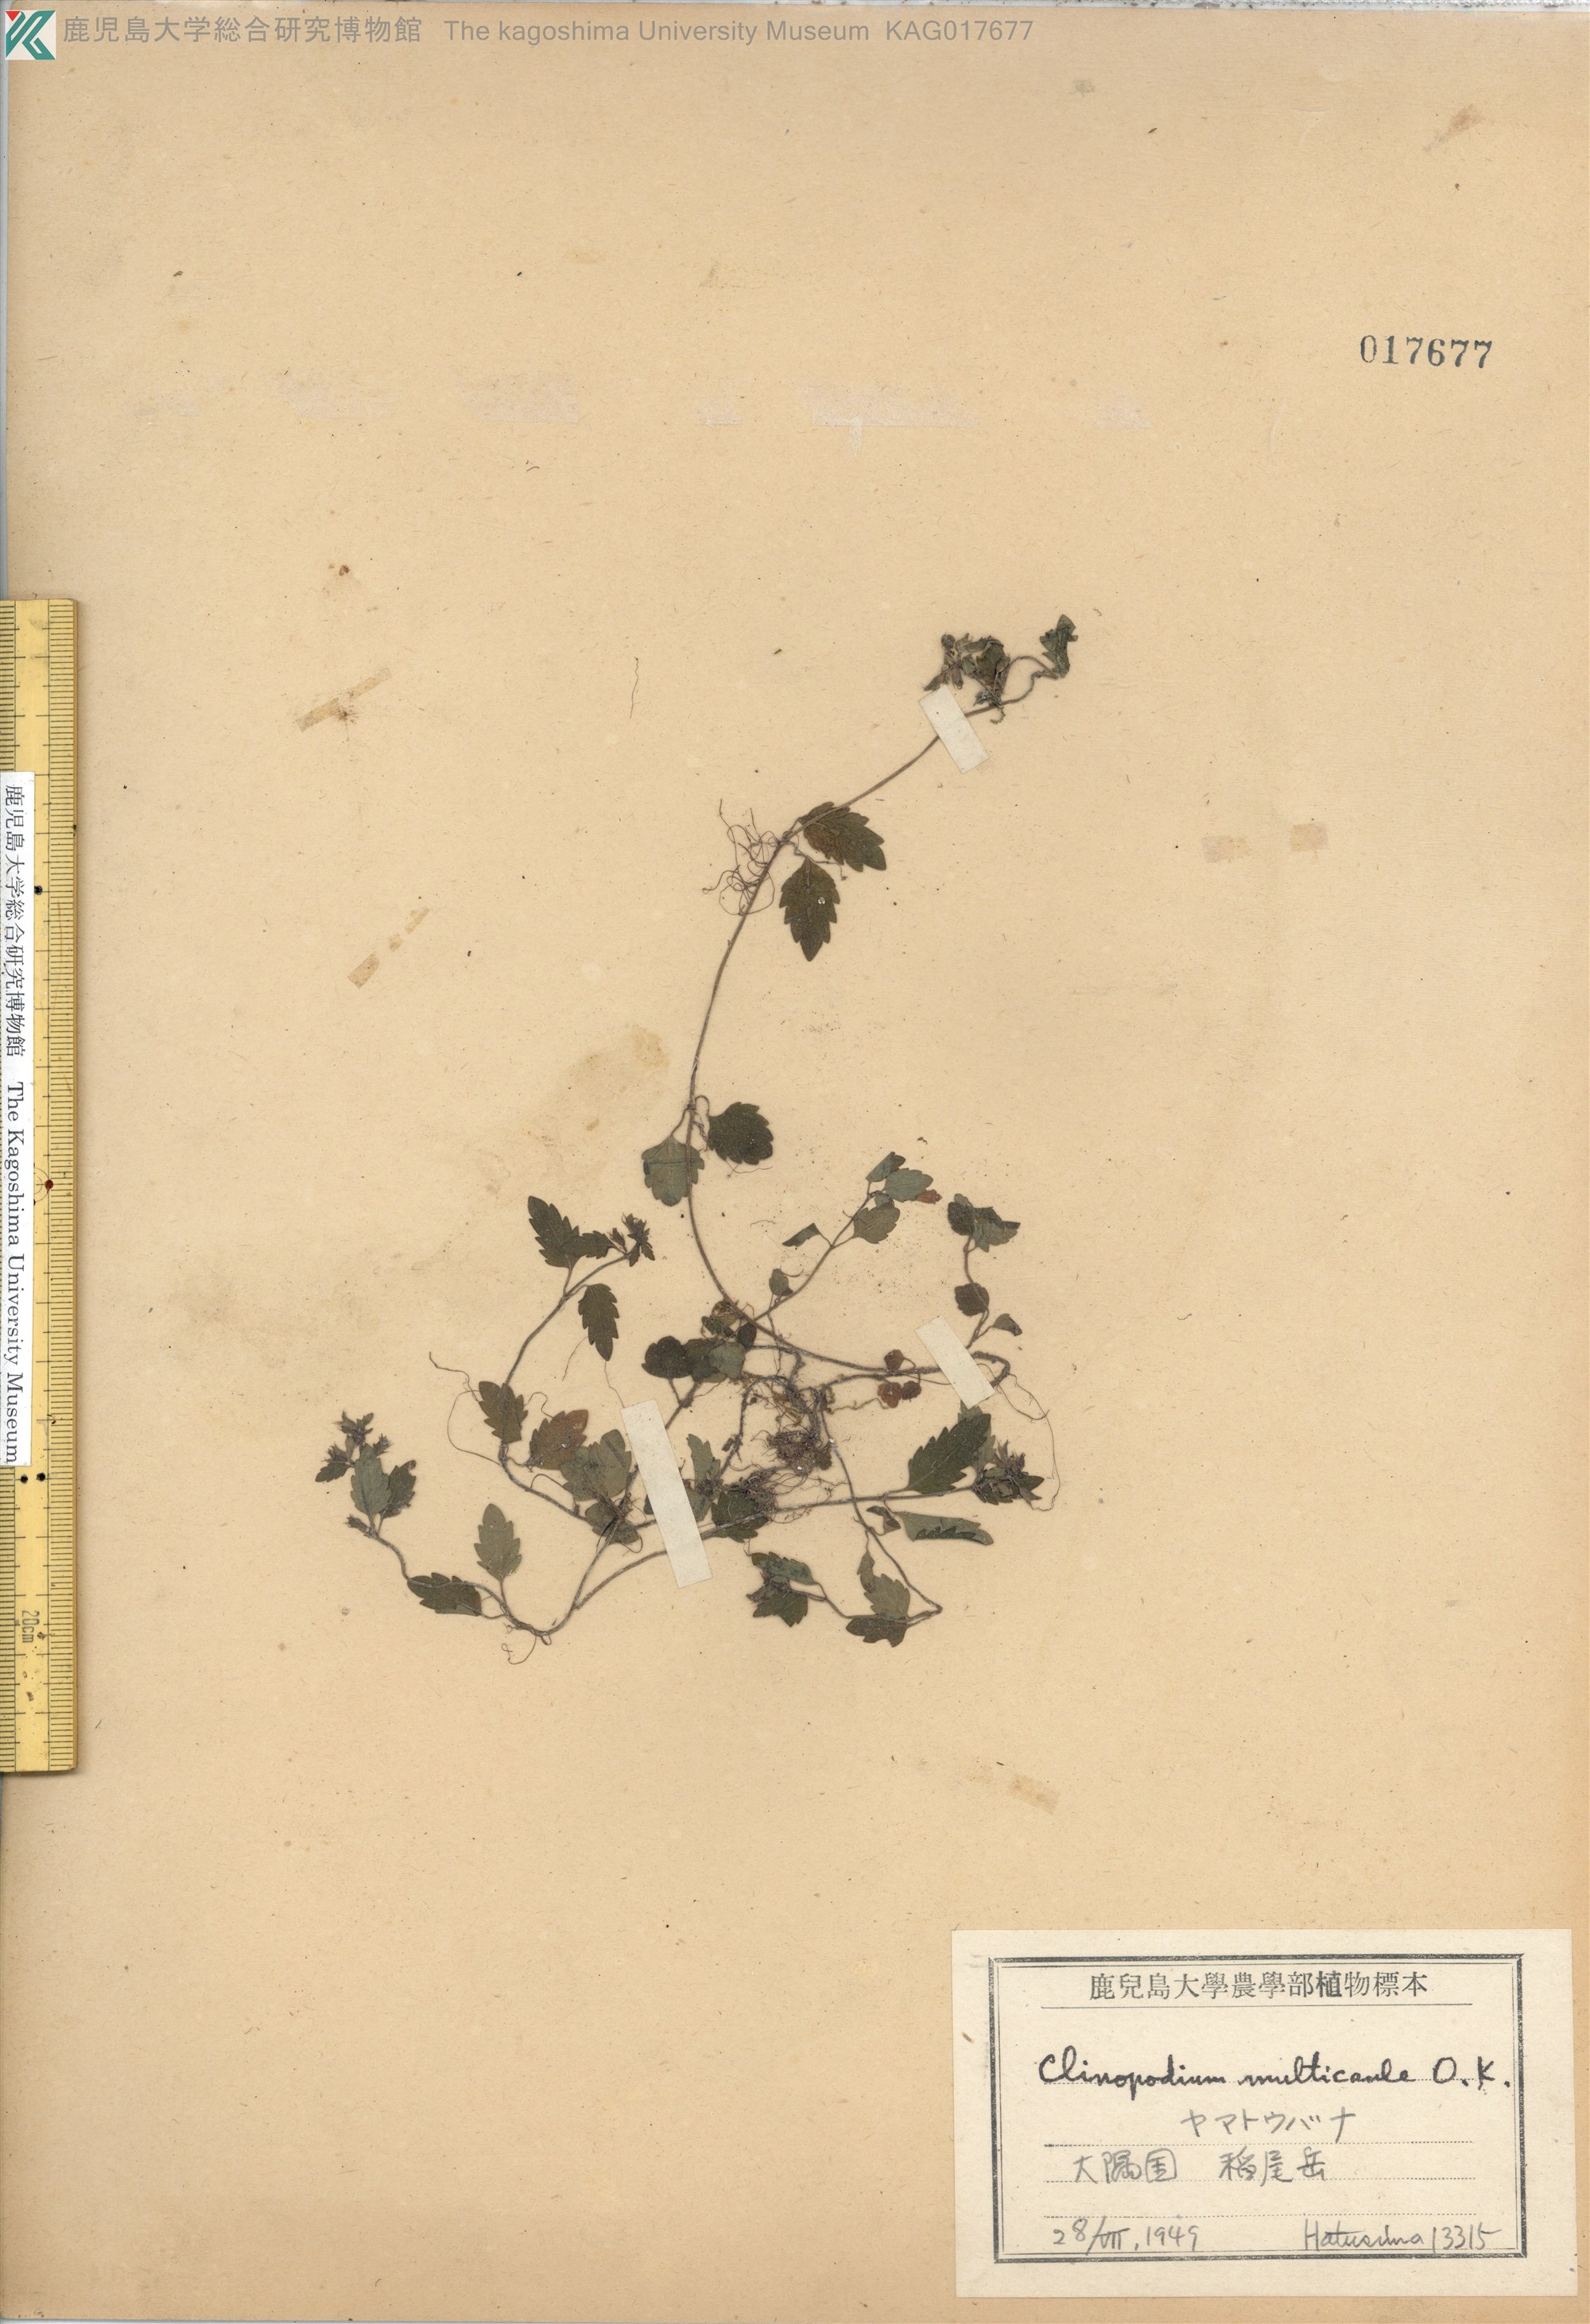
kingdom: Plantae
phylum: Tracheophyta
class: Magnoliopsida
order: Lamiales
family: Lamiaceae
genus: Clinopodium
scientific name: Clinopodium multicaule
